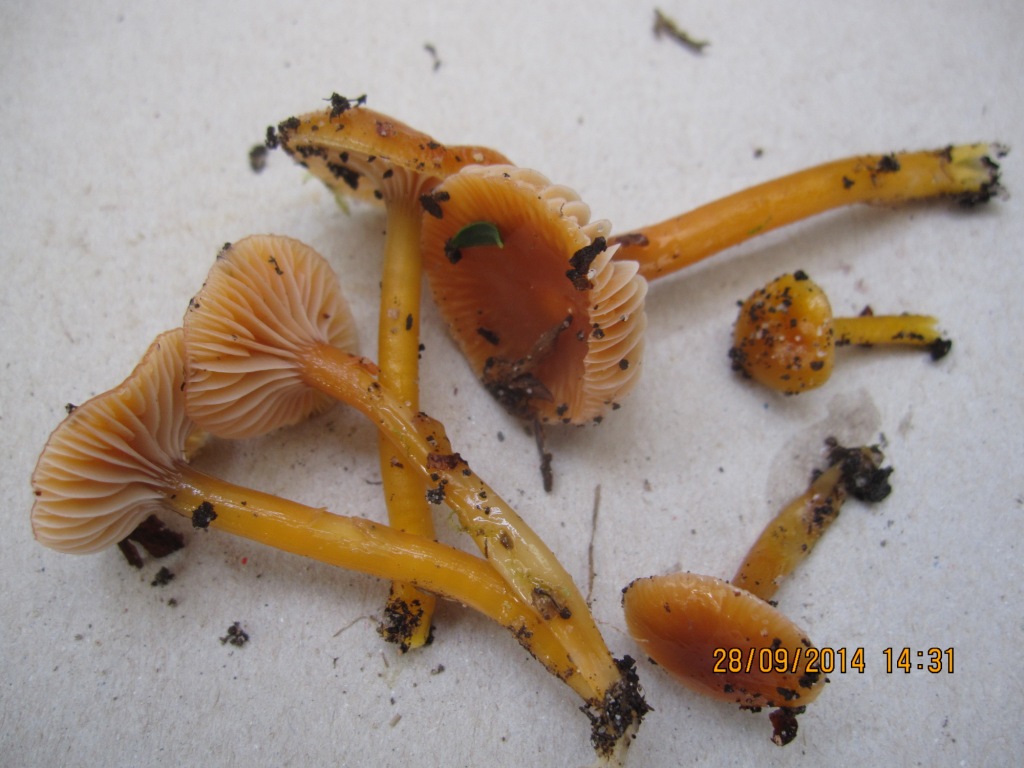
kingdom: Fungi
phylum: Basidiomycota
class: Agaricomycetes
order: Agaricales
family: Hygrophoraceae
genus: Gliophorus
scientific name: Gliophorus laetus
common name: brusk-vokshat
